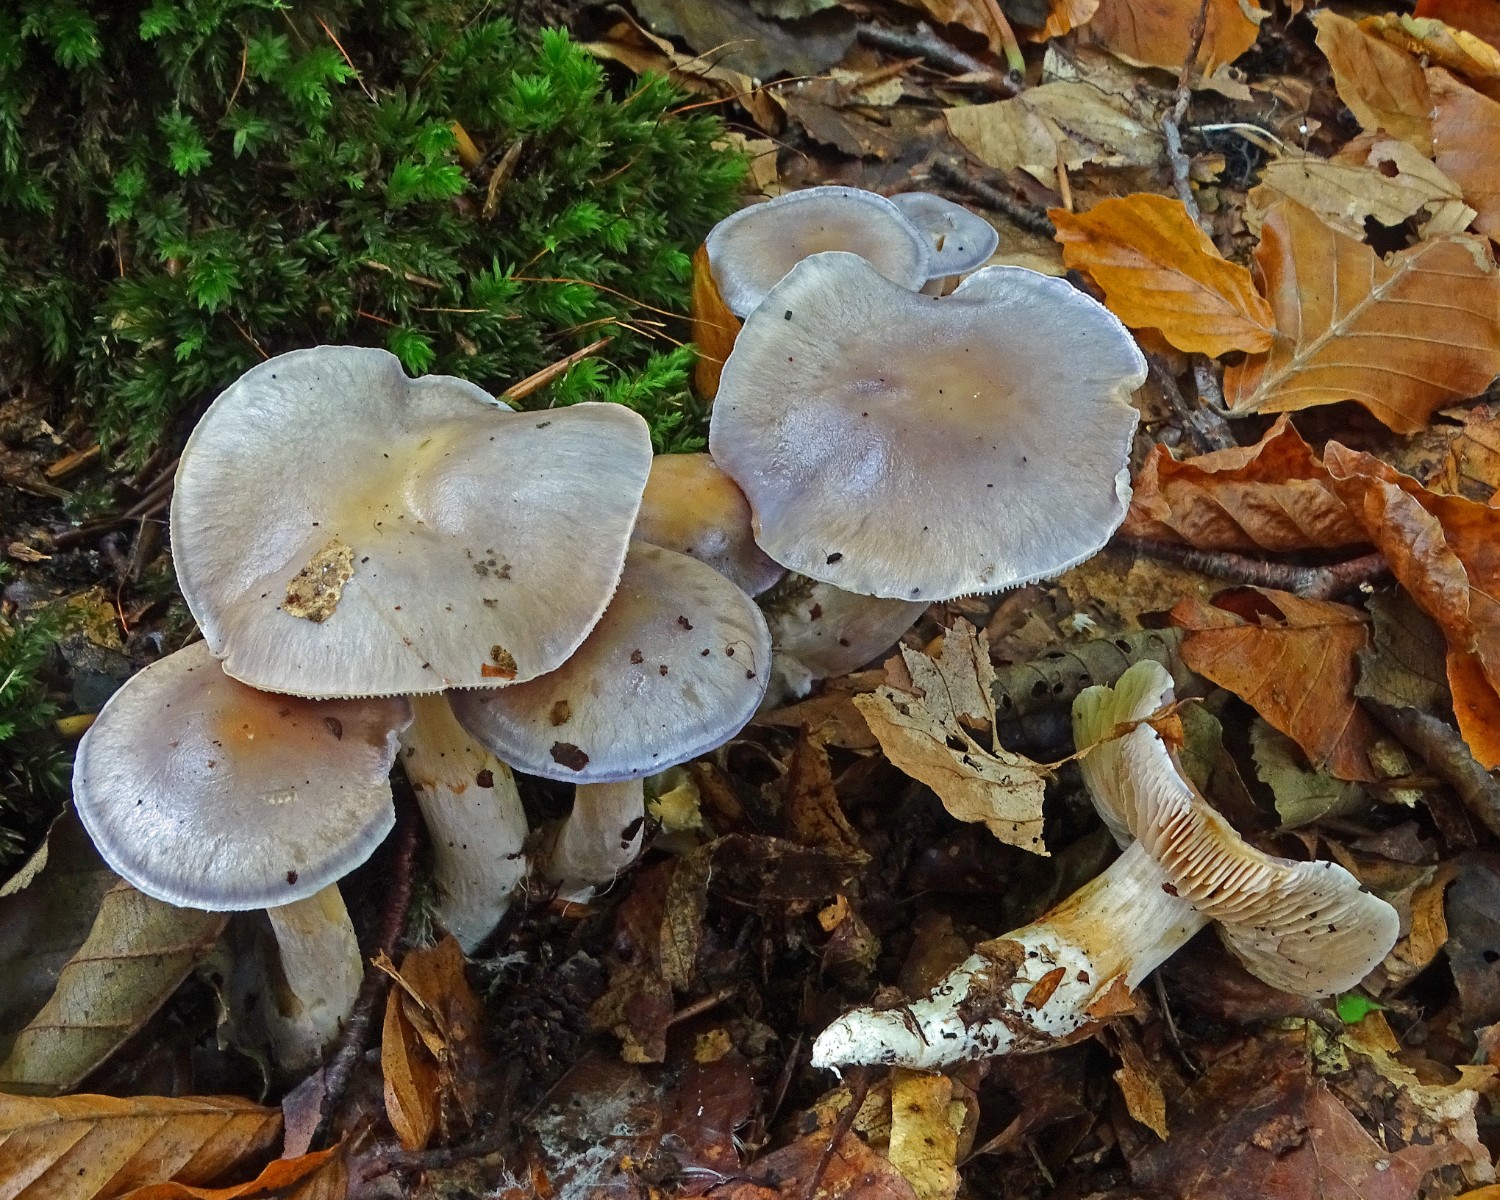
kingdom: Fungi
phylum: Basidiomycota
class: Agaricomycetes
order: Agaricales
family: Cortinariaceae
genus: Thaxterogaster
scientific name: Thaxterogaster croceocoeruleus
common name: blågullig slørhat
